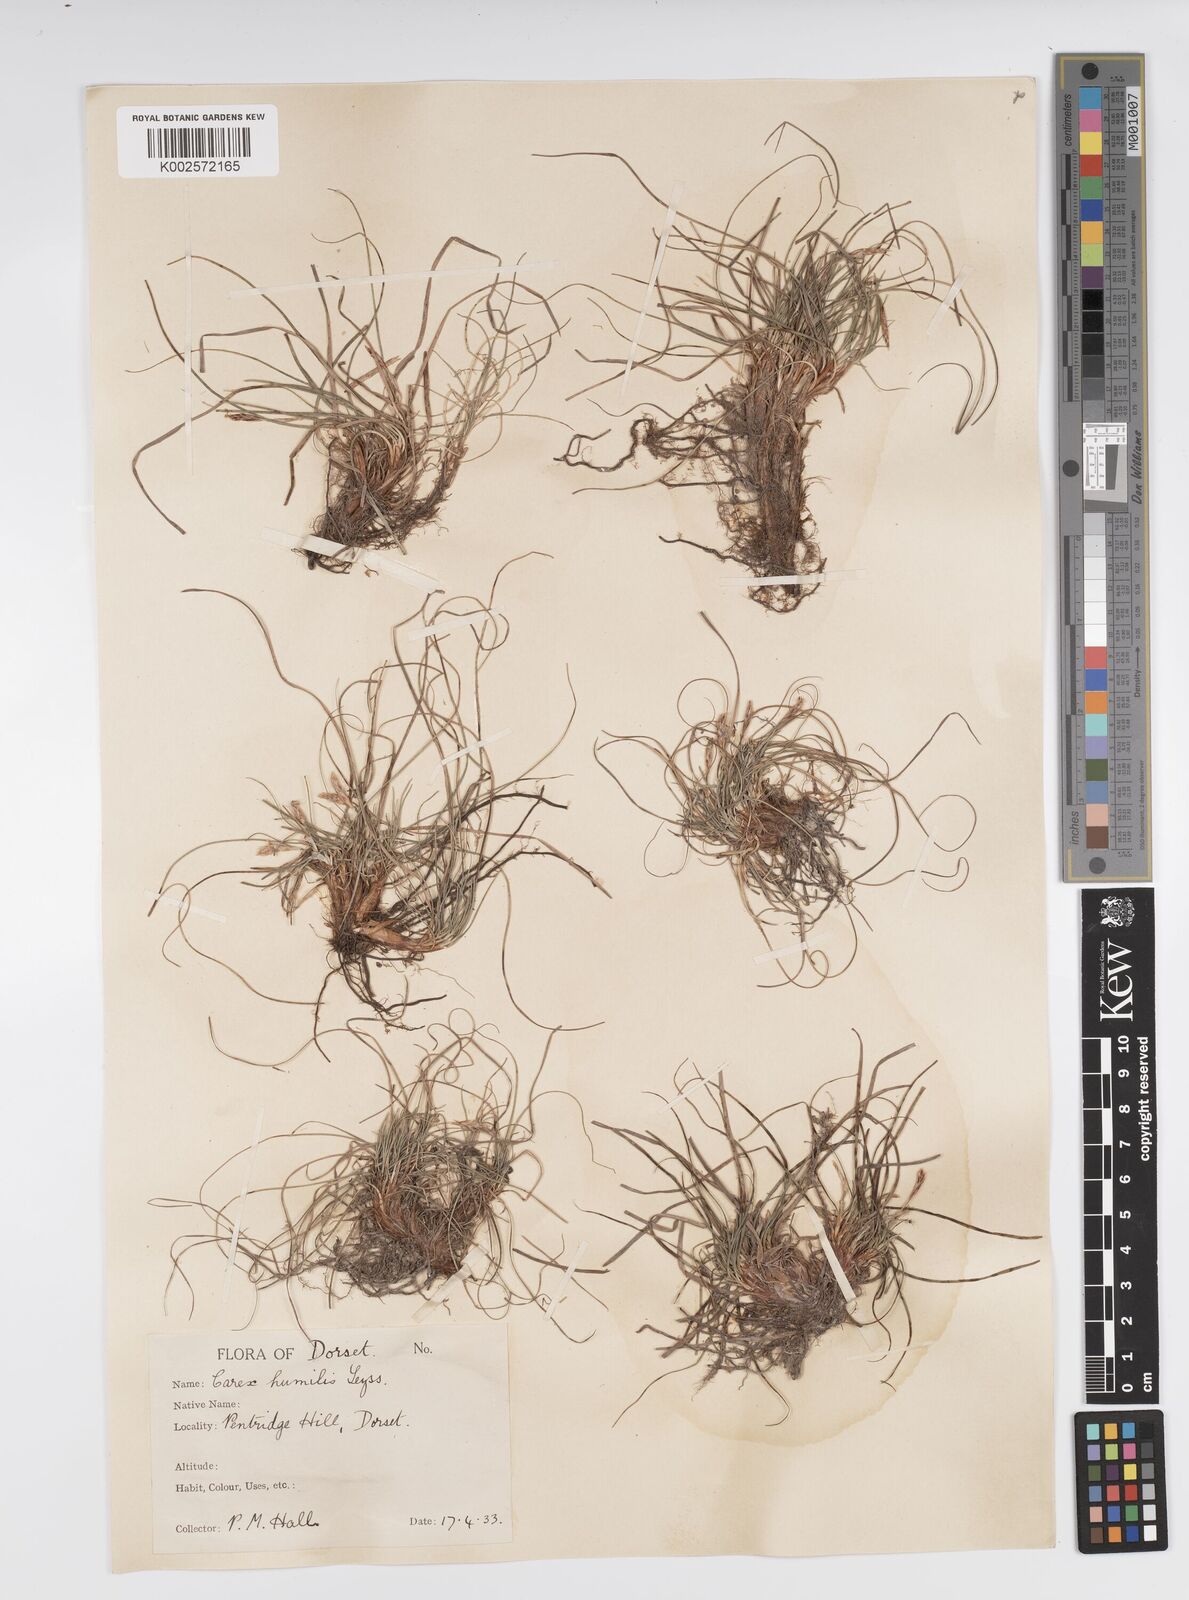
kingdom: Plantae
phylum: Tracheophyta
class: Liliopsida
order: Poales
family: Cyperaceae
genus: Carex
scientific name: Carex cespitosa
